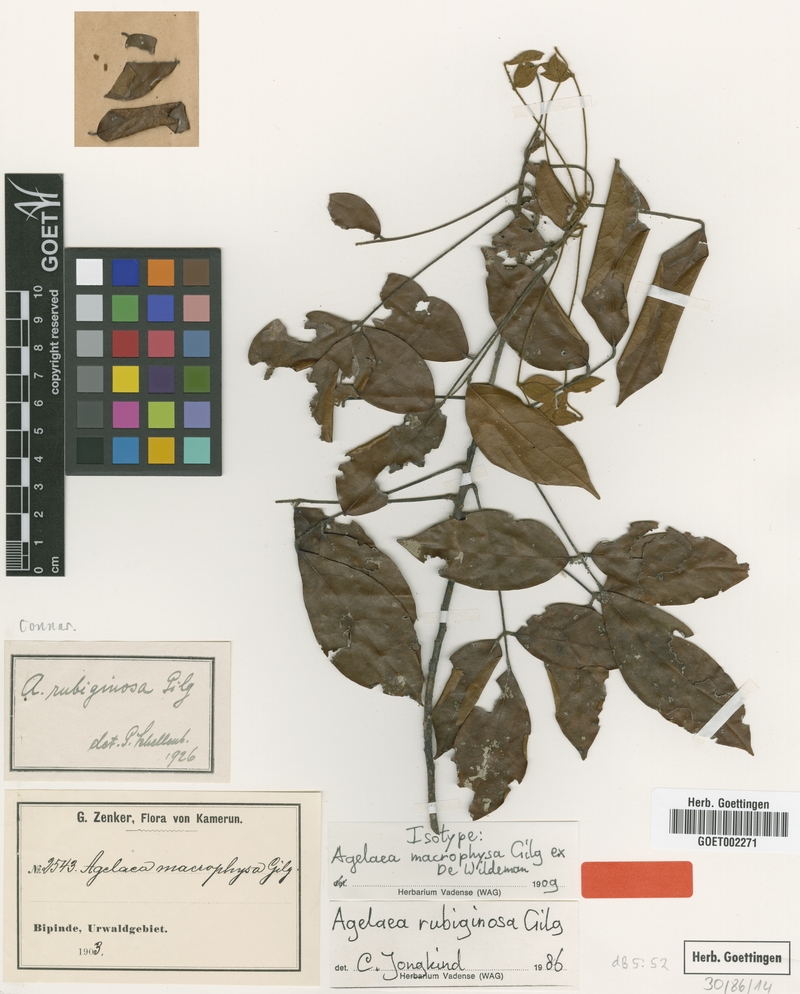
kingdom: Plantae
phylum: Tracheophyta
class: Magnoliopsida
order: Oxalidales
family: Connaraceae
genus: Agelaea
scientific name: Agelaea rubiginosa
